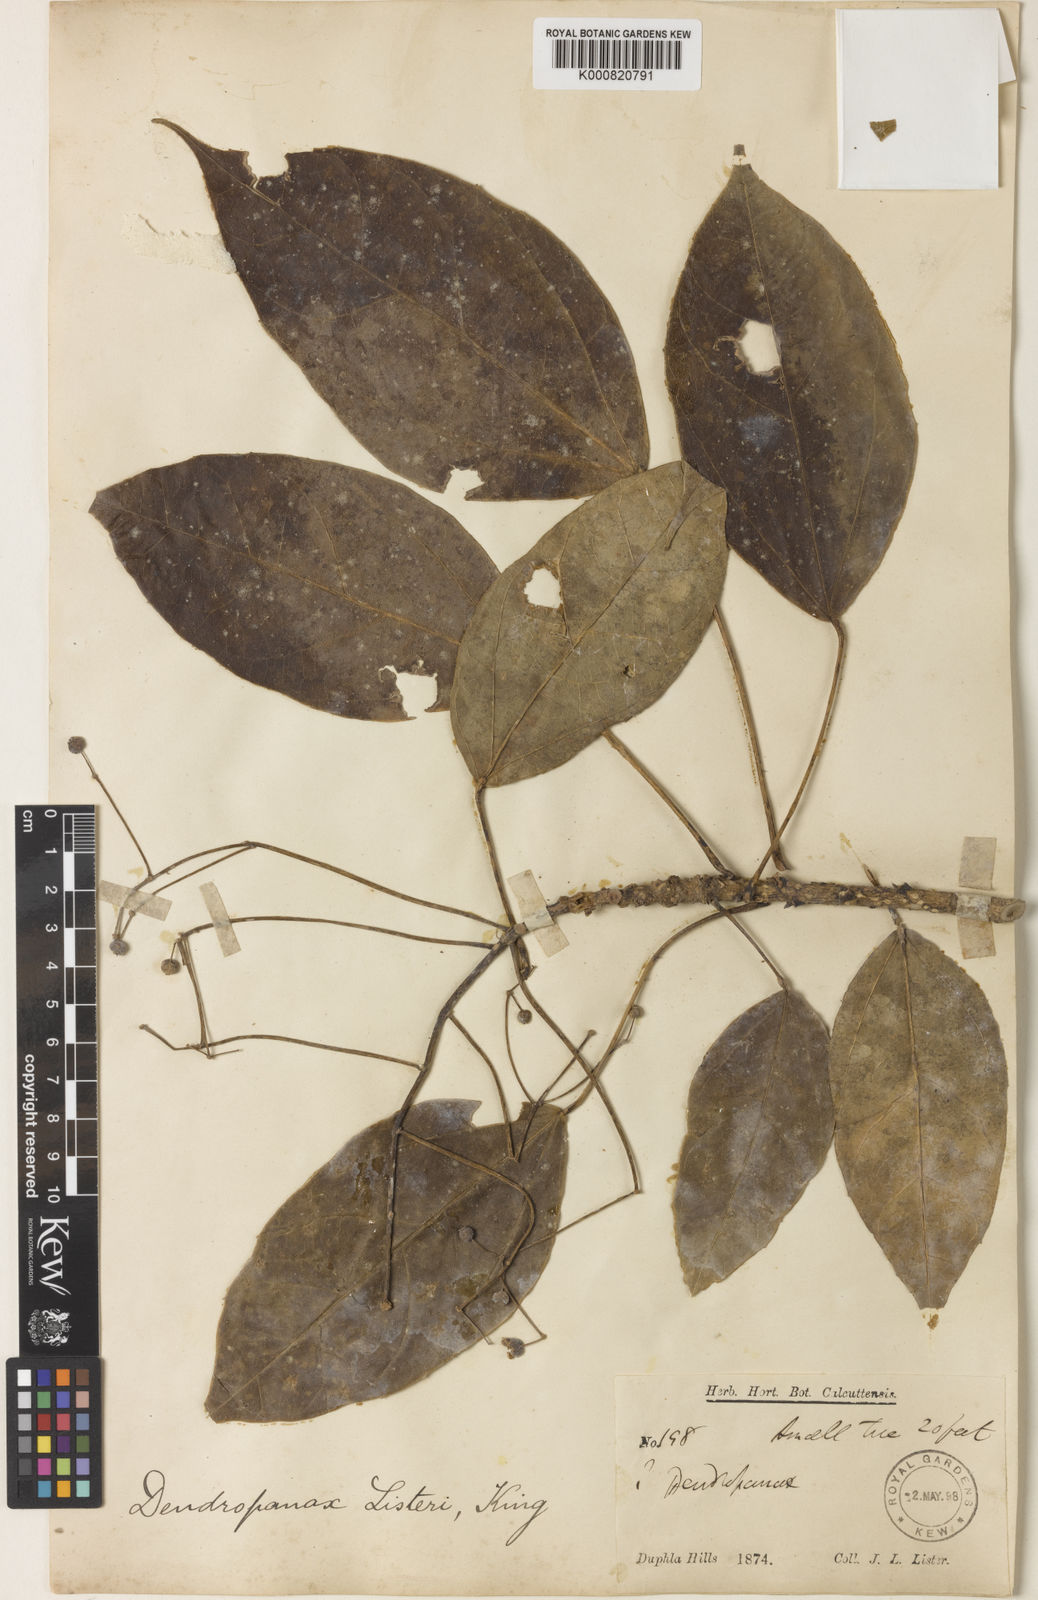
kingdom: Plantae
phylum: Tracheophyta
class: Magnoliopsida
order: Apiales
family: Araliaceae
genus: Merrilliopanax
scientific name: Merrilliopanax listeri
